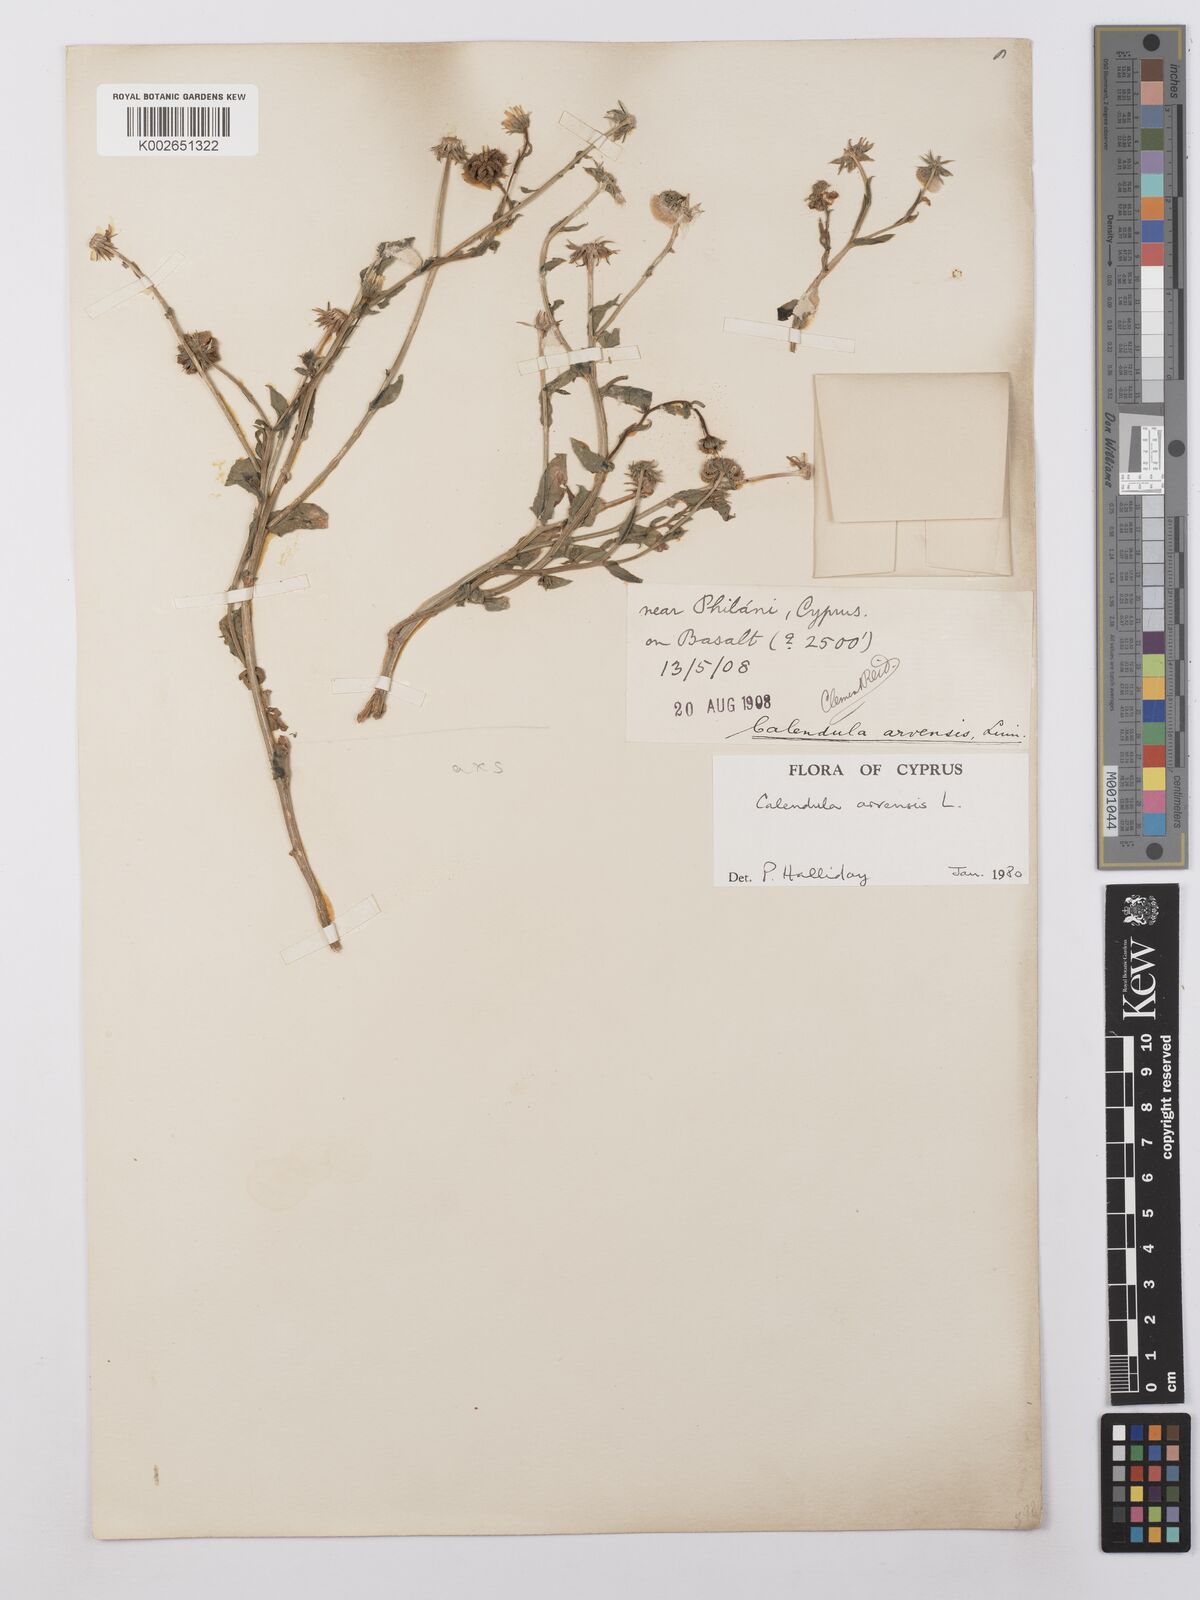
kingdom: Plantae
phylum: Tracheophyta
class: Magnoliopsida
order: Asterales
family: Asteraceae
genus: Calendula
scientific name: Calendula arvensis
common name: Field marigold
